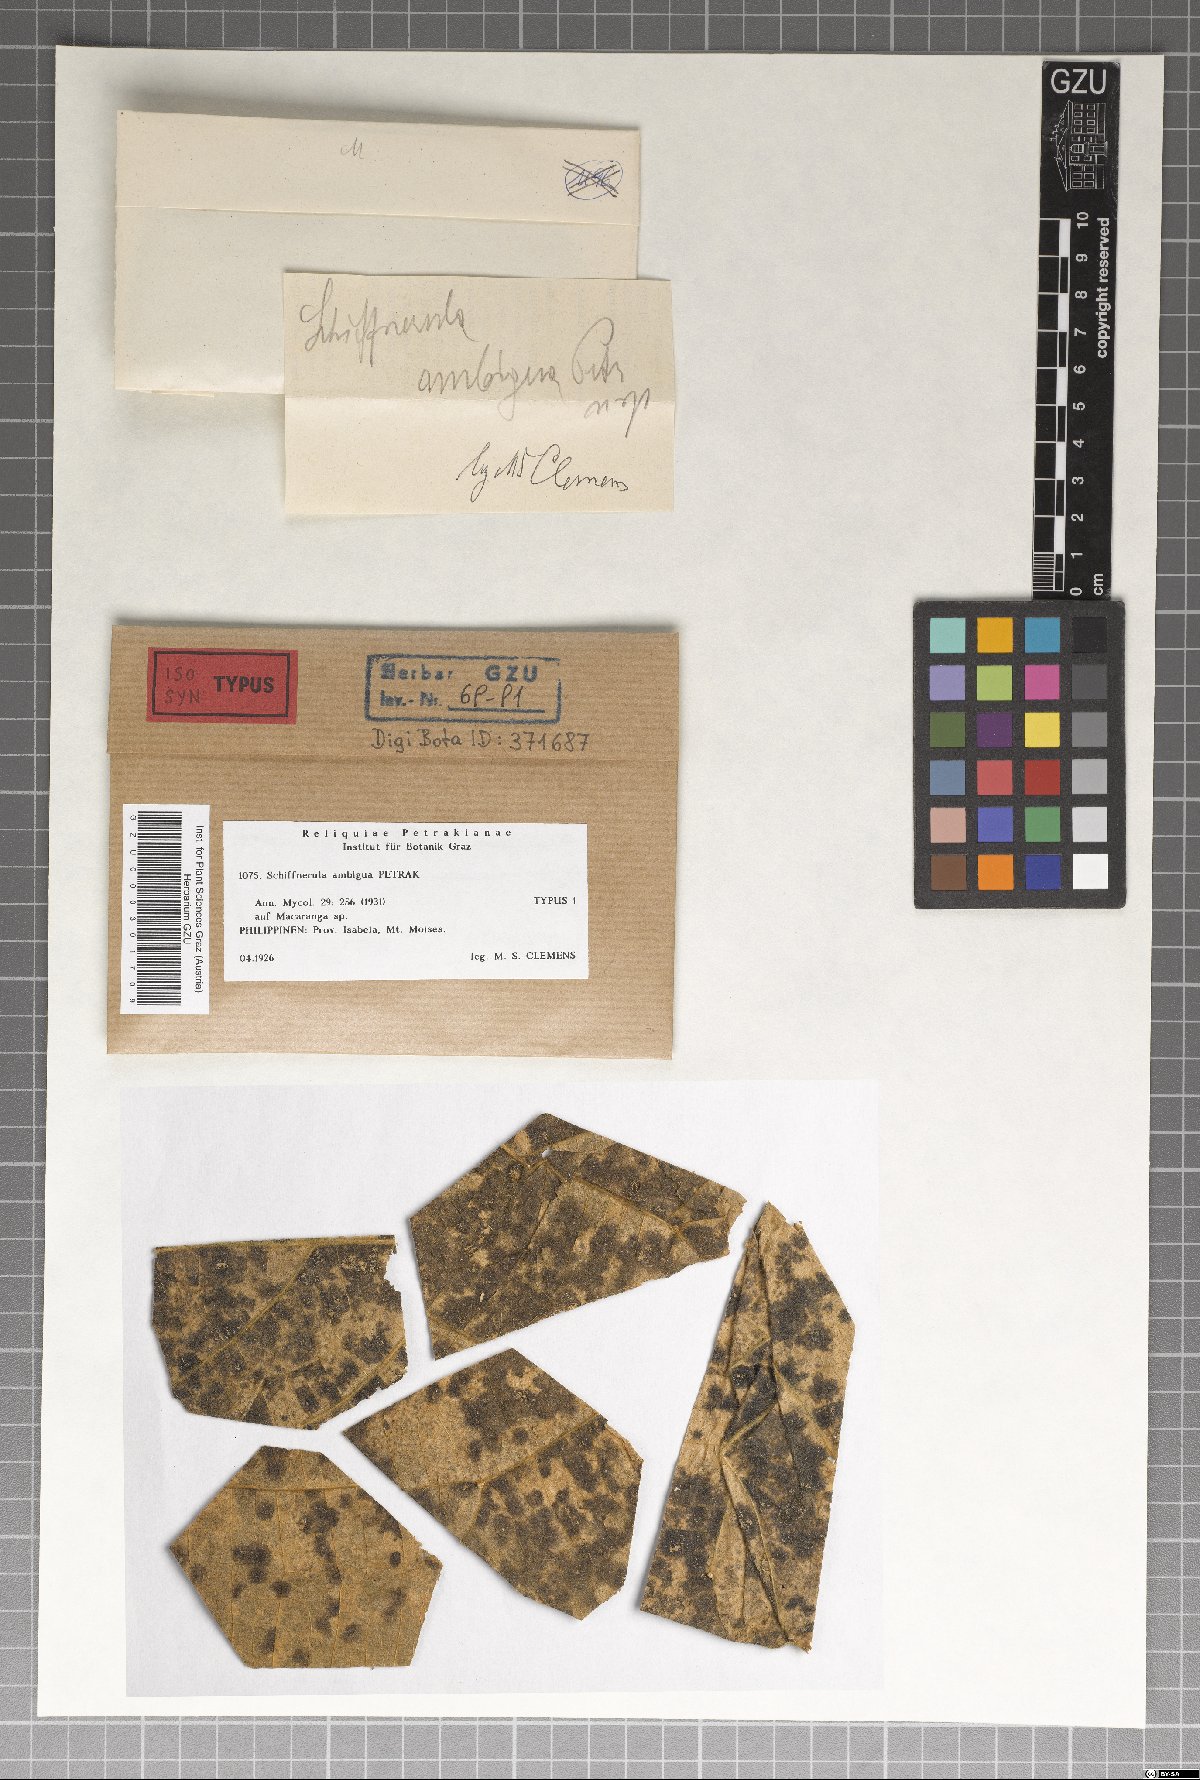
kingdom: Fungi
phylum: Ascomycota
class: Dothideomycetes
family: Englerulaceae
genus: Schiffnerula
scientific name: Schiffnerula ambigua
